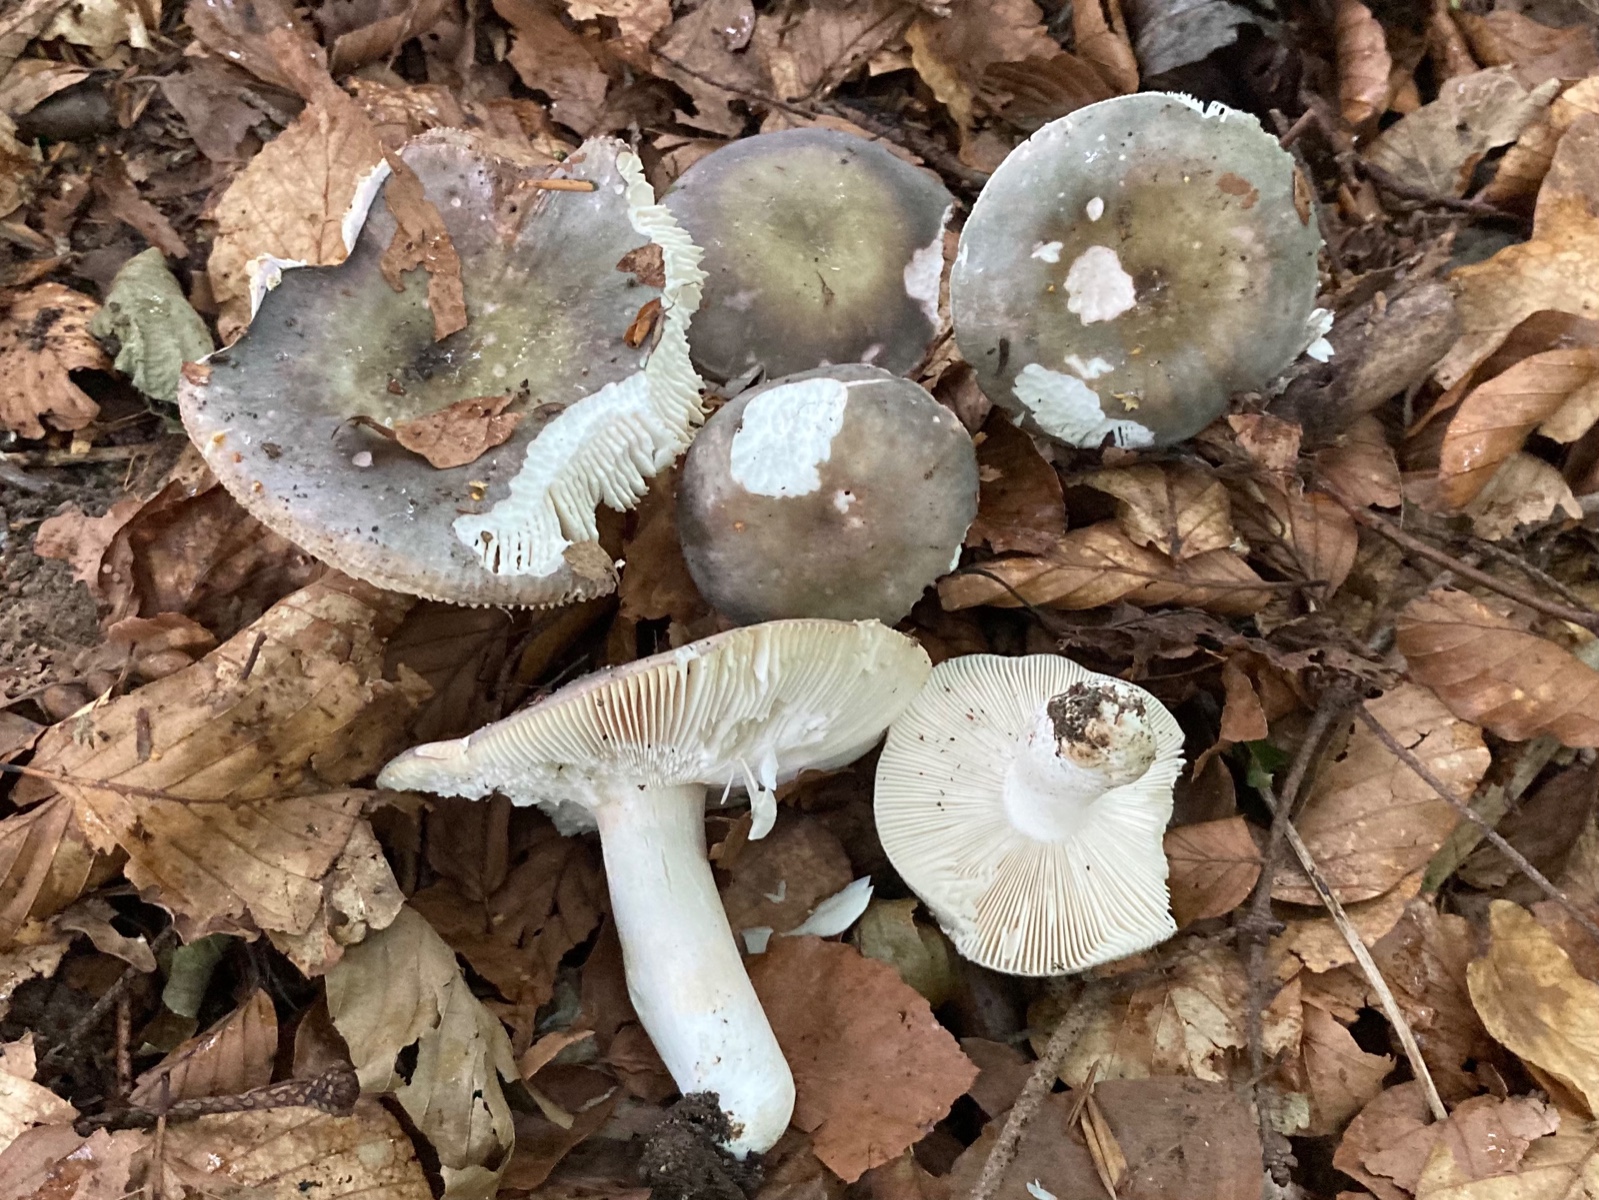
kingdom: Fungi
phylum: Basidiomycota
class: Agaricomycetes
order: Russulales
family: Russulaceae
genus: Russula
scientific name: Russula ionochlora
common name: violetgrøn skørhat
